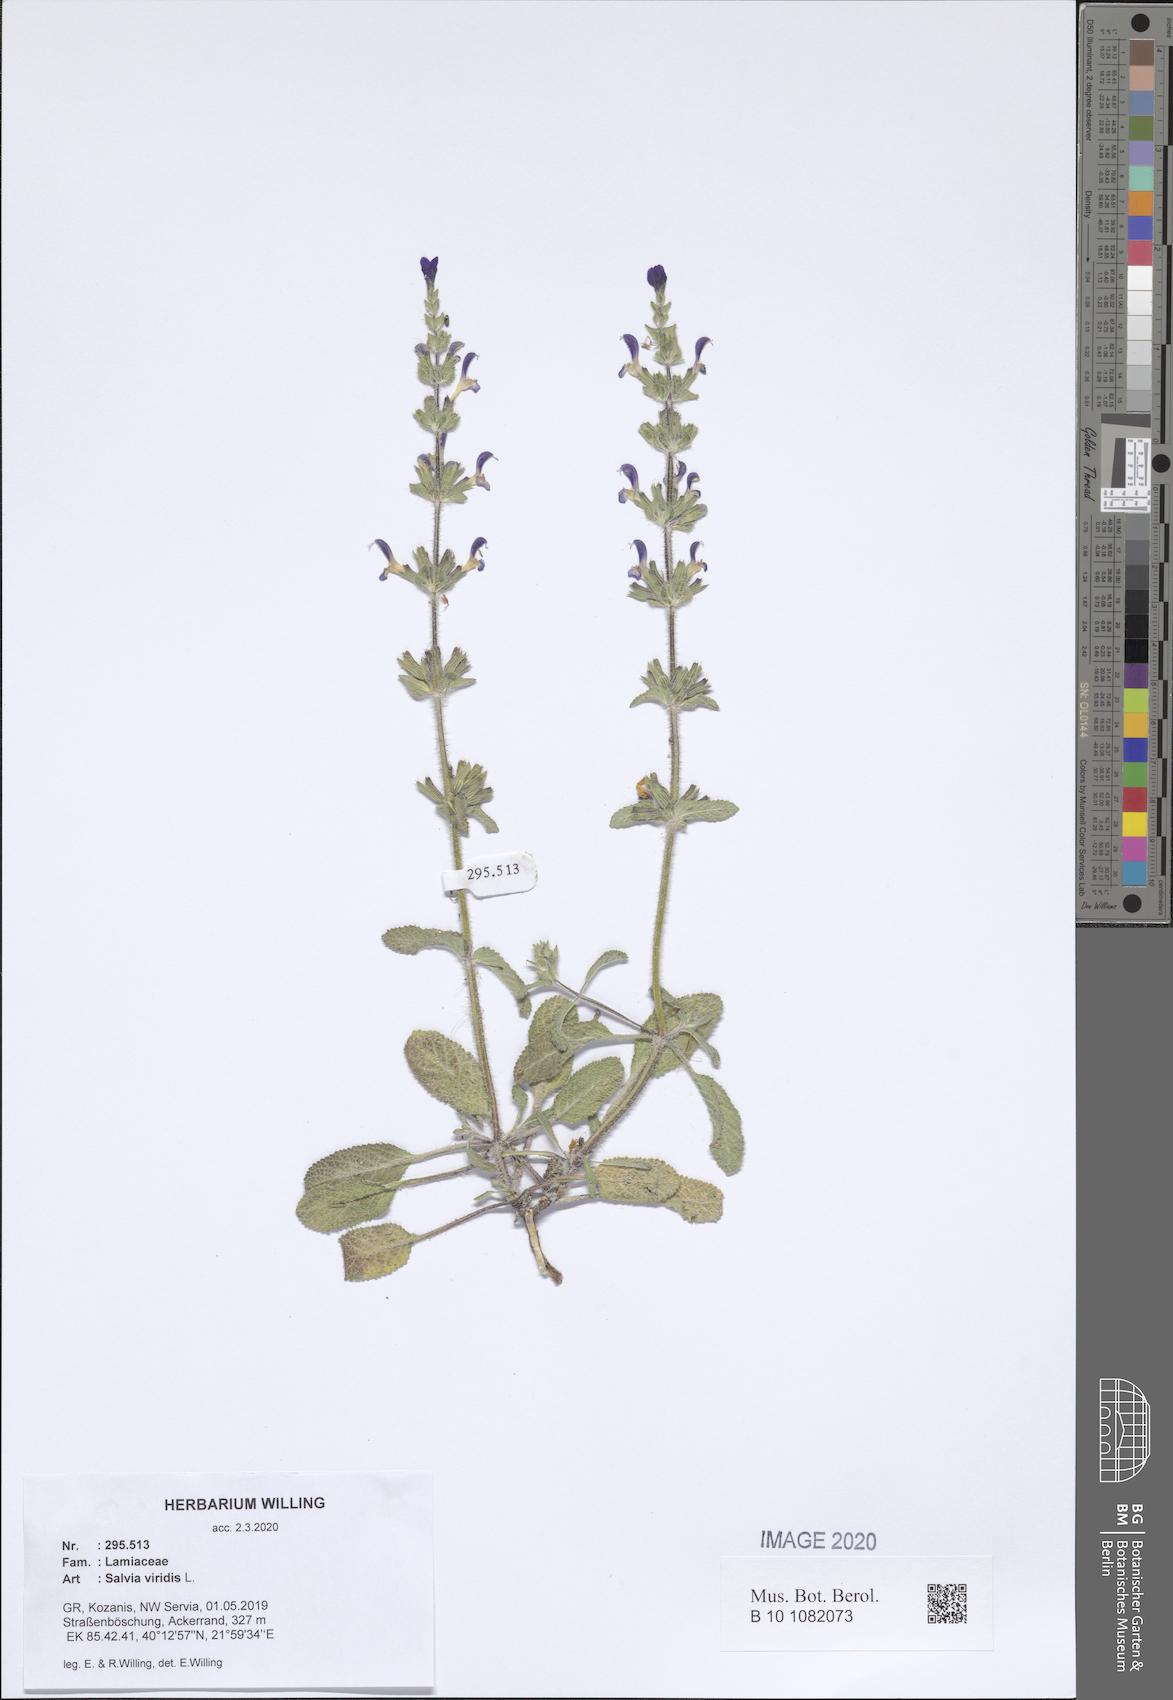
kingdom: Plantae
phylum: Tracheophyta
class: Magnoliopsida
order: Lamiales
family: Lamiaceae
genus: Salvia
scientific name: Salvia viridis
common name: Annual clary
